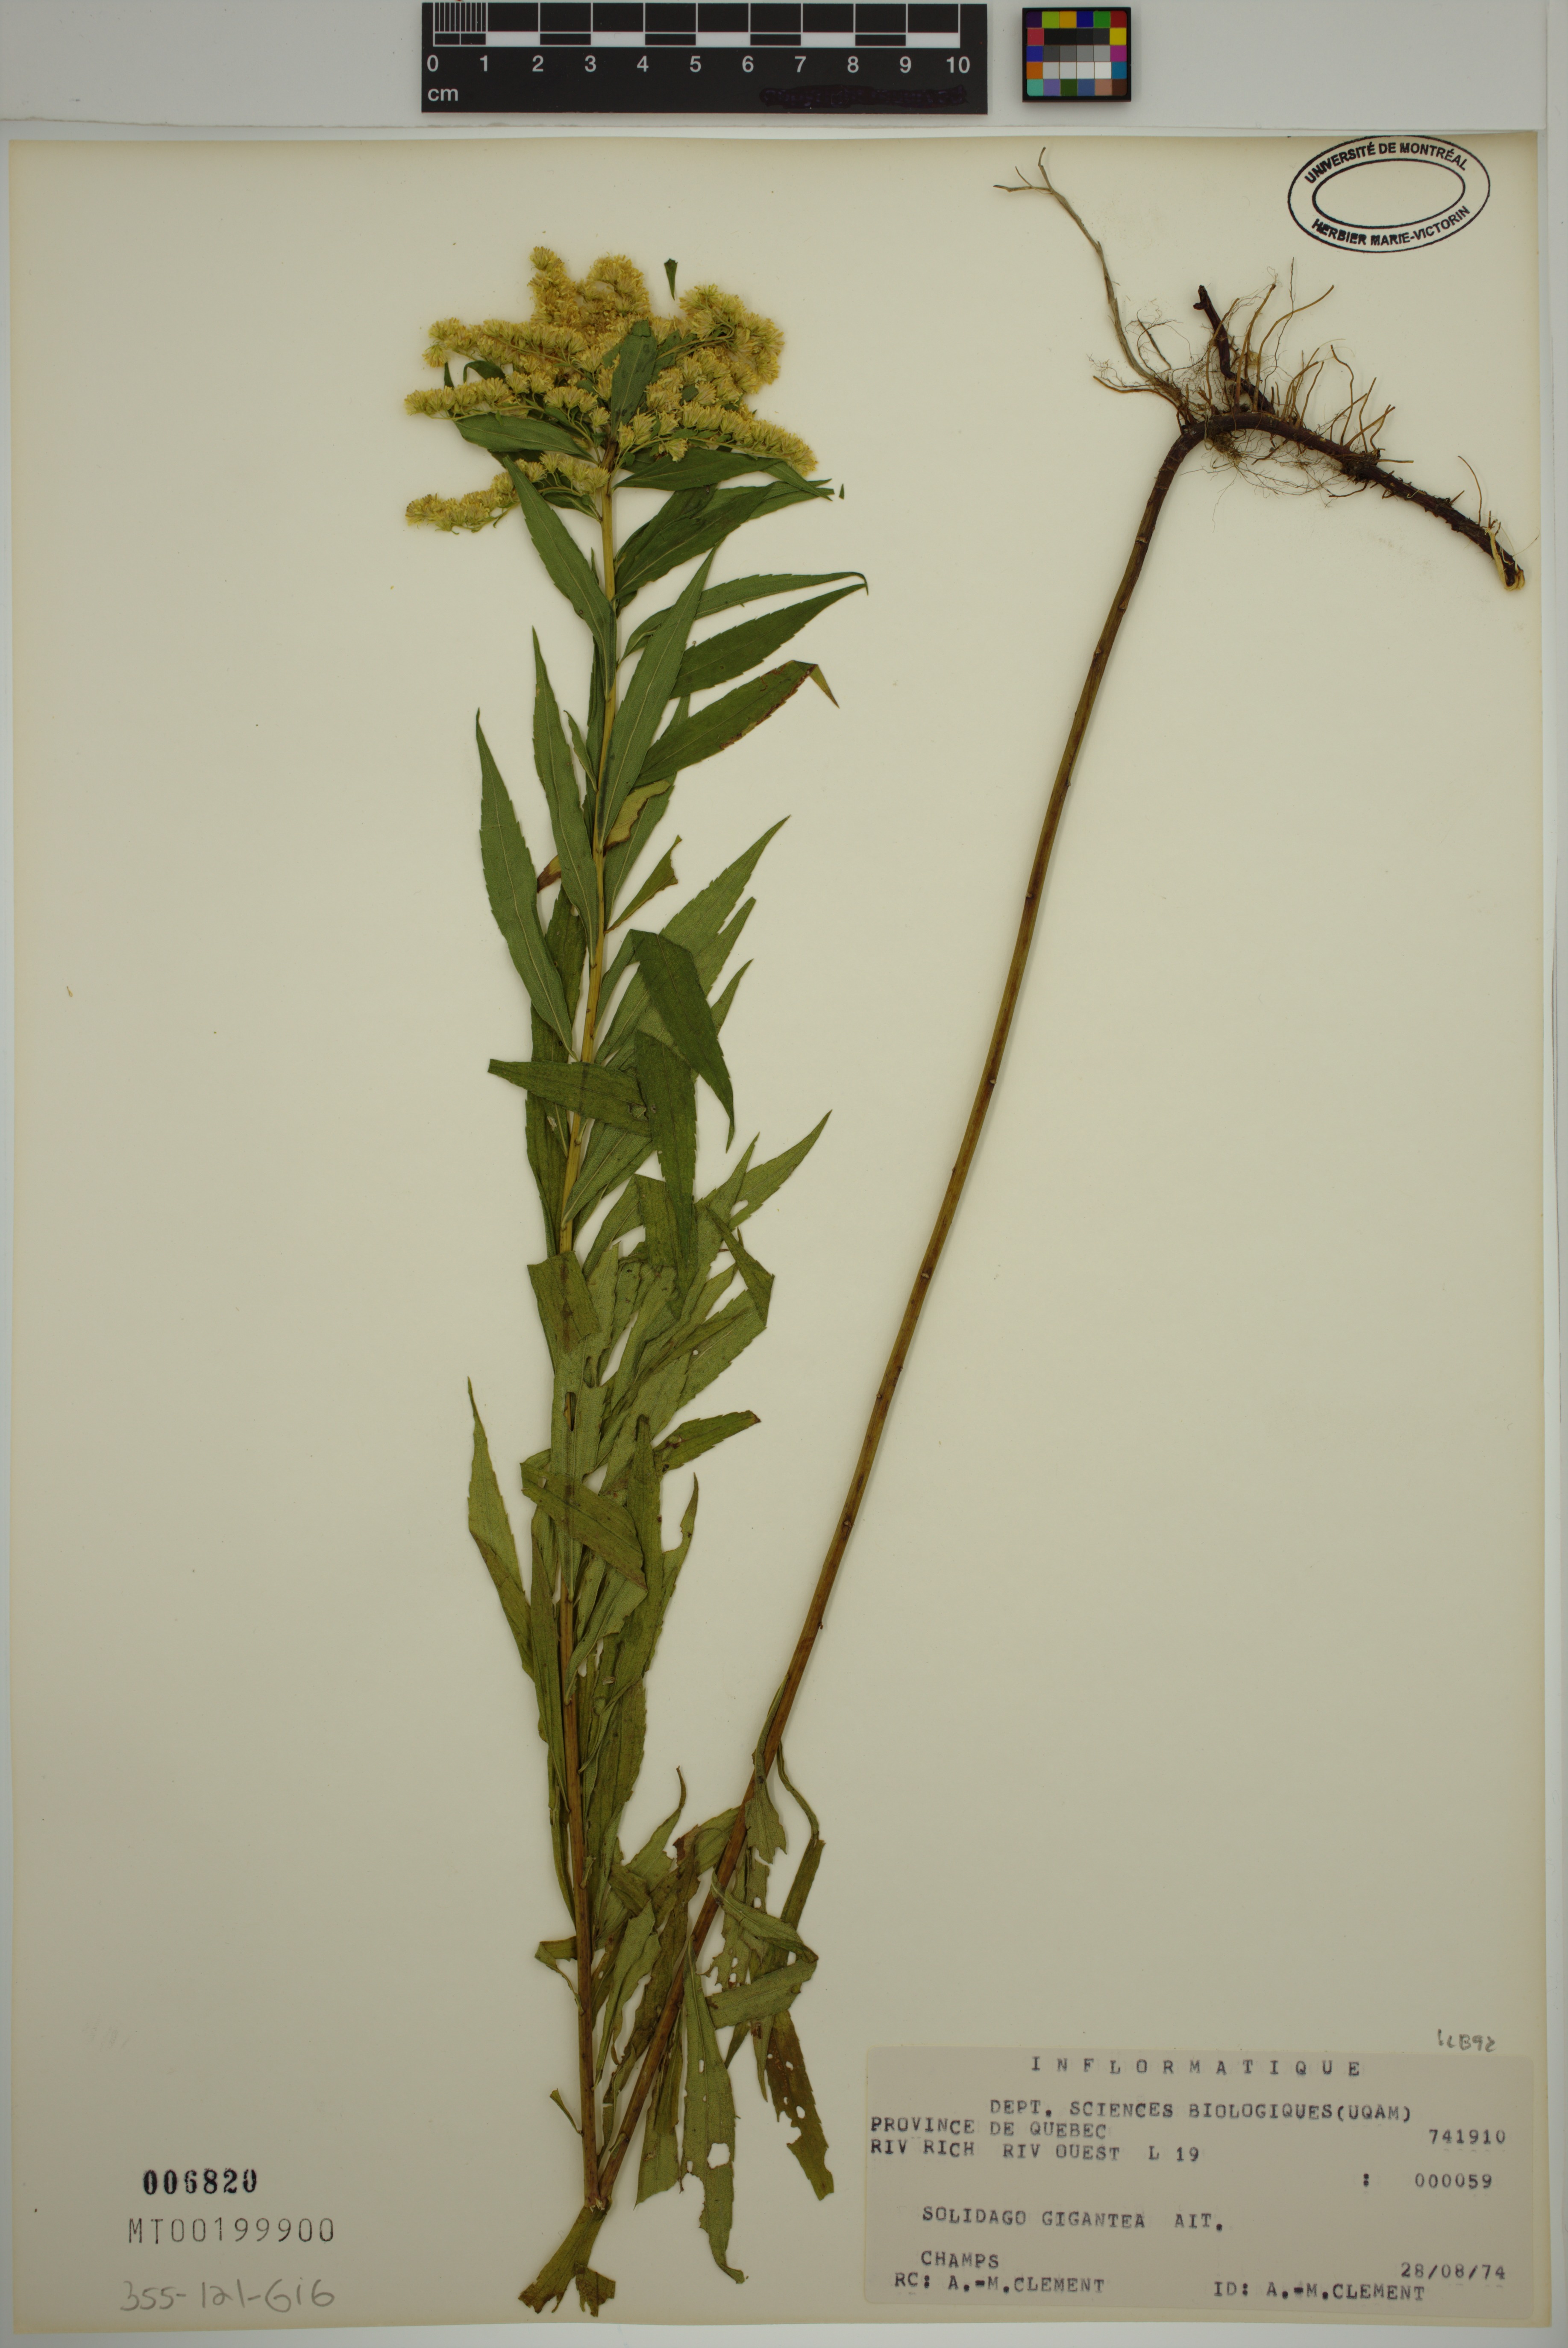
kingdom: Plantae
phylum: Tracheophyta
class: Magnoliopsida
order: Asterales
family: Asteraceae
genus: Solidago
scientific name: Solidago gigantea
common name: Giant goldenrod
